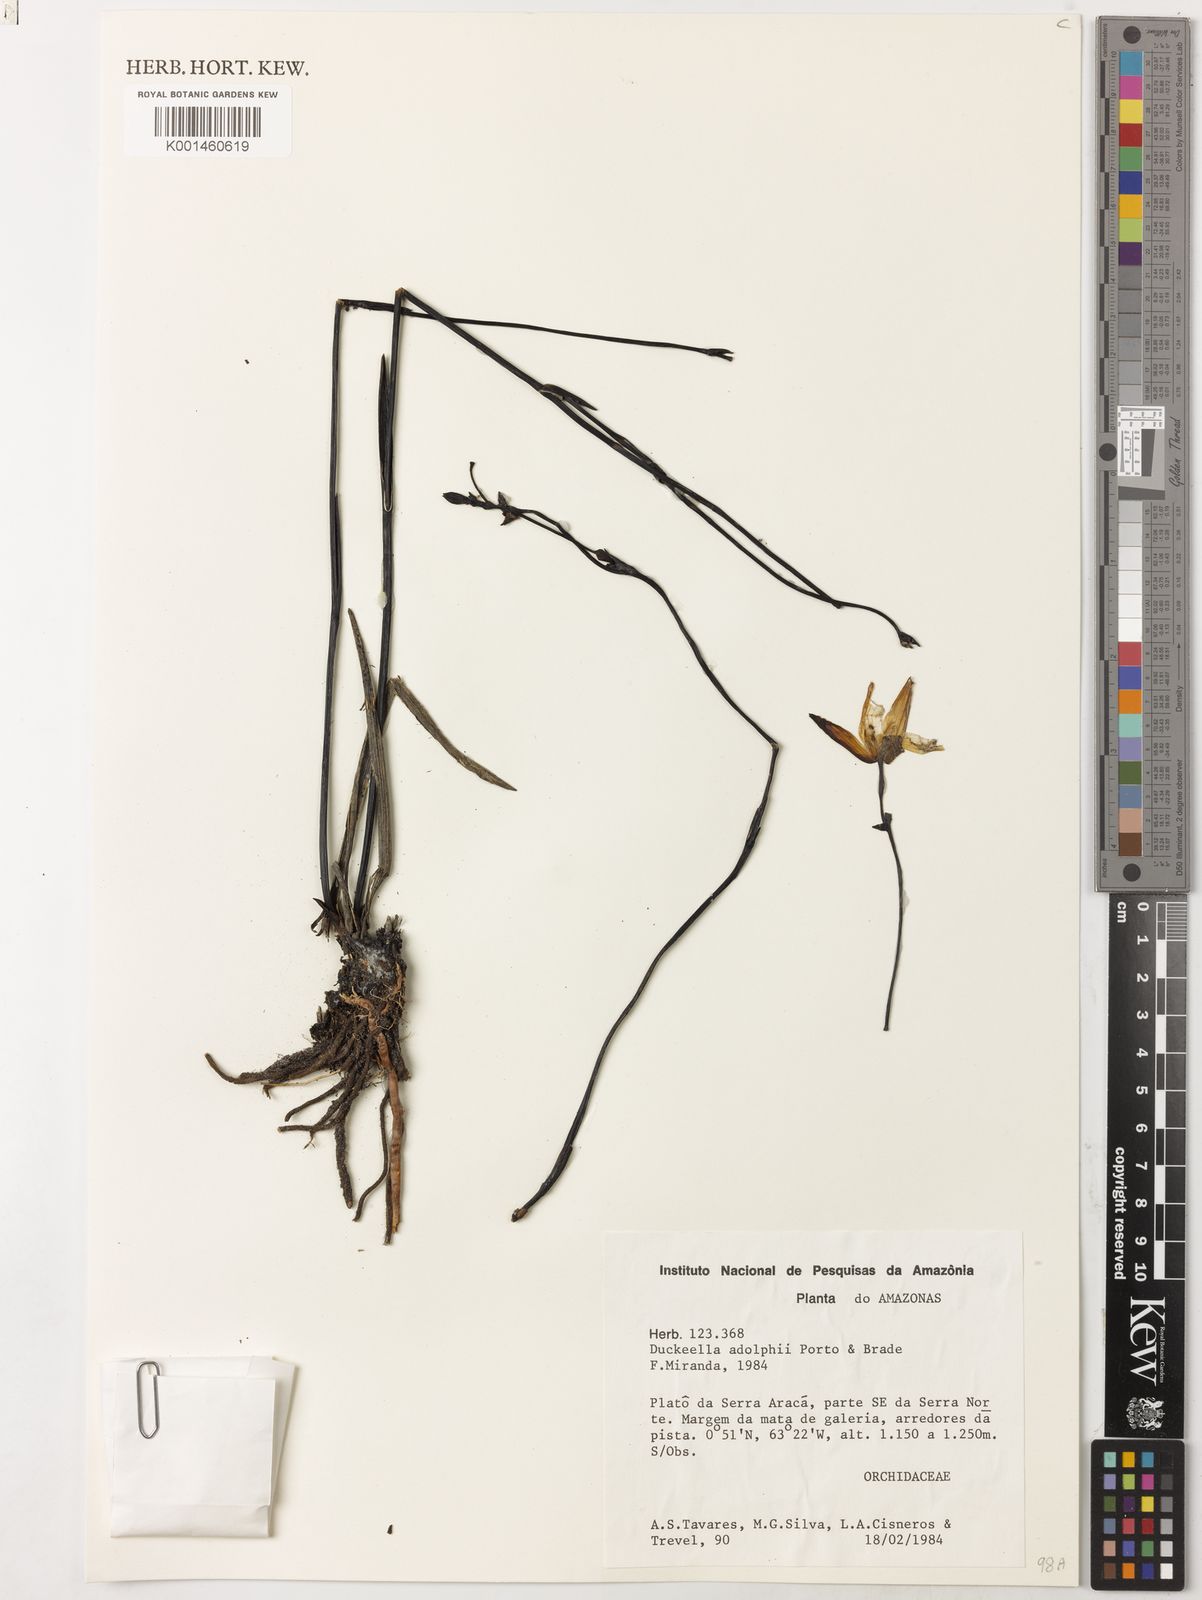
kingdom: Plantae
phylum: Tracheophyta
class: Liliopsida
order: Asparagales
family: Orchidaceae
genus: Duckeella
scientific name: Duckeella adolphii
